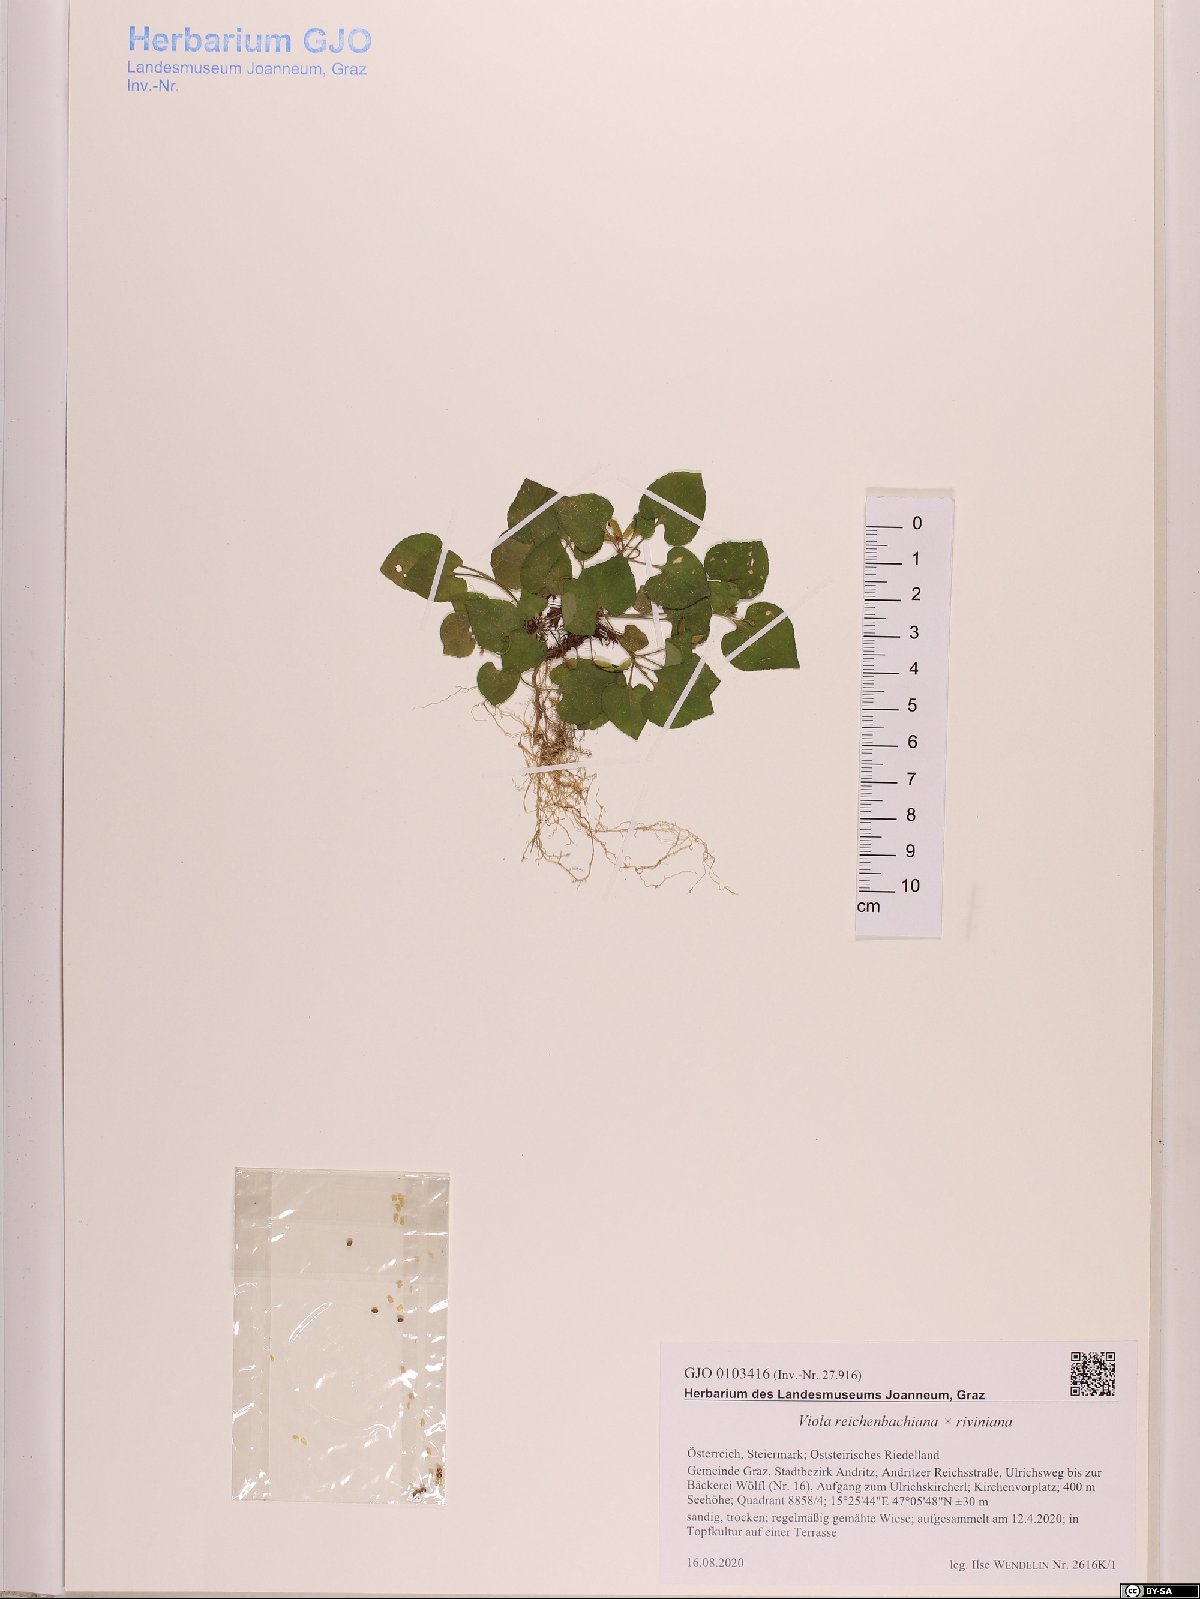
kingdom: Plantae
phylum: Tracheophyta
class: Magnoliopsida
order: Malpighiales
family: Violaceae
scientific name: Violaceae
